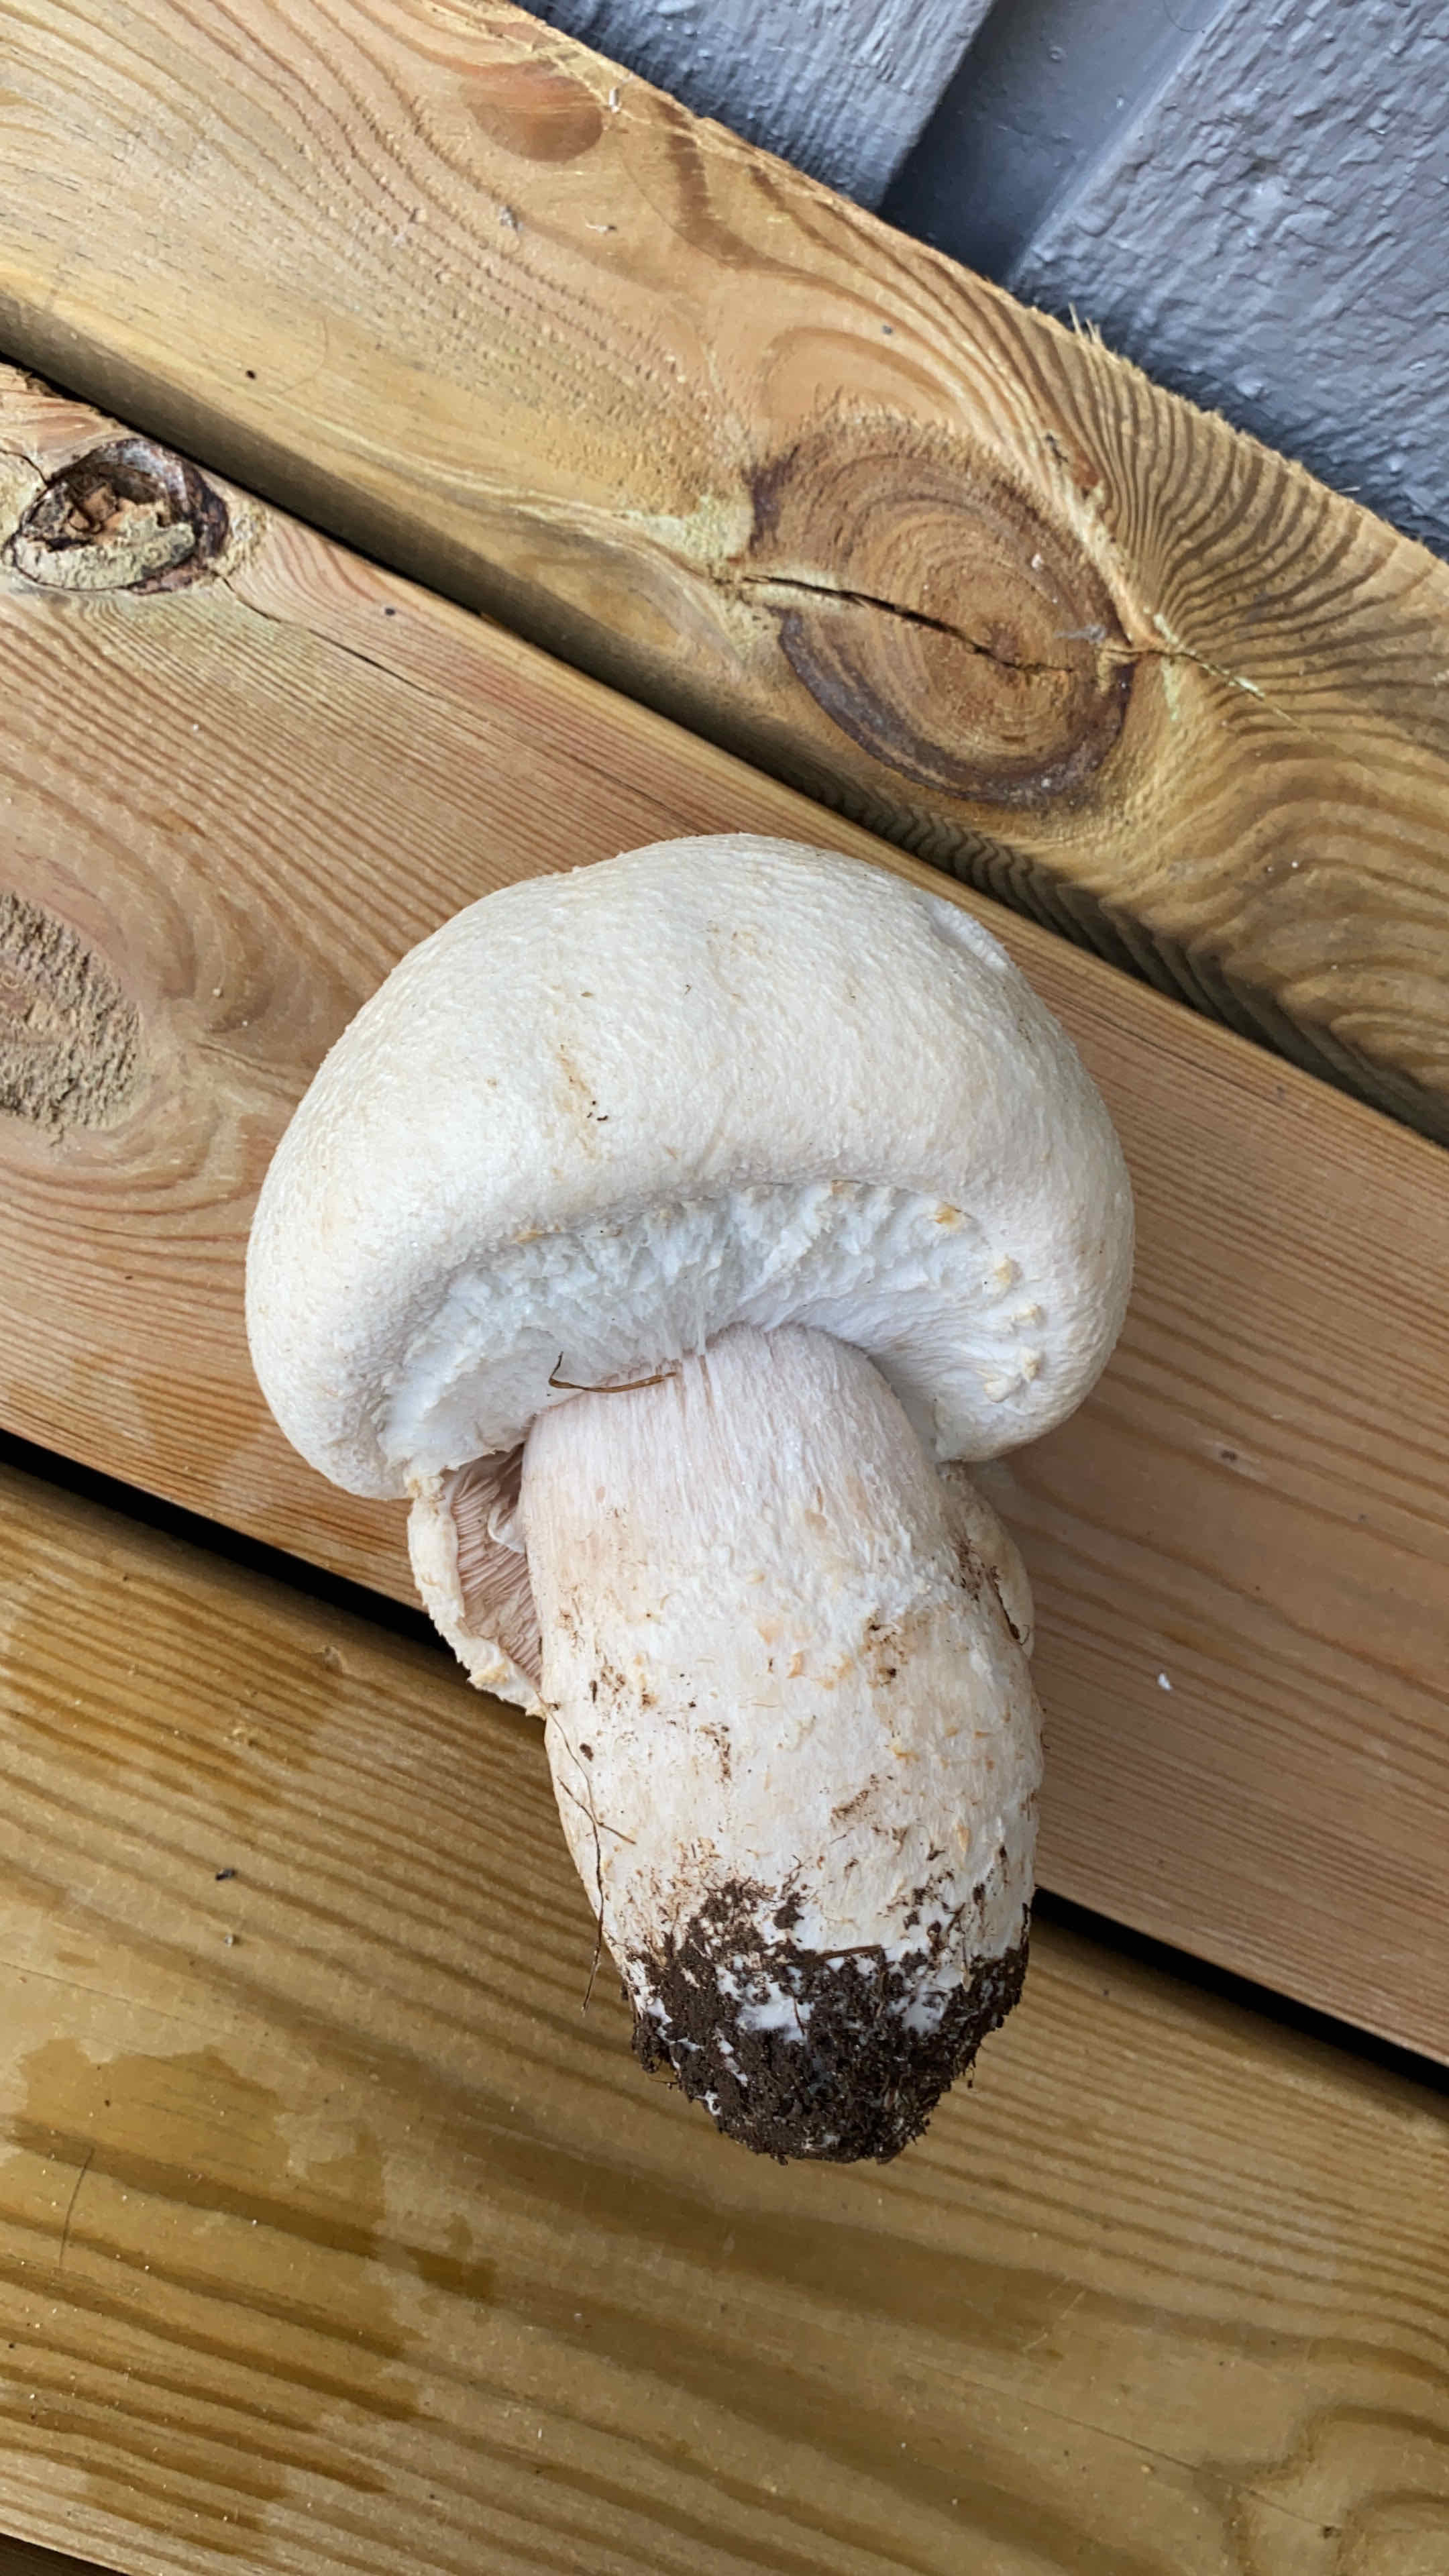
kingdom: Fungi
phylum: Basidiomycota
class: Agaricomycetes
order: Agaricales
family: Agaricaceae
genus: Agaricus
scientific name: Agaricus arvensis
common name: ager-champignon
